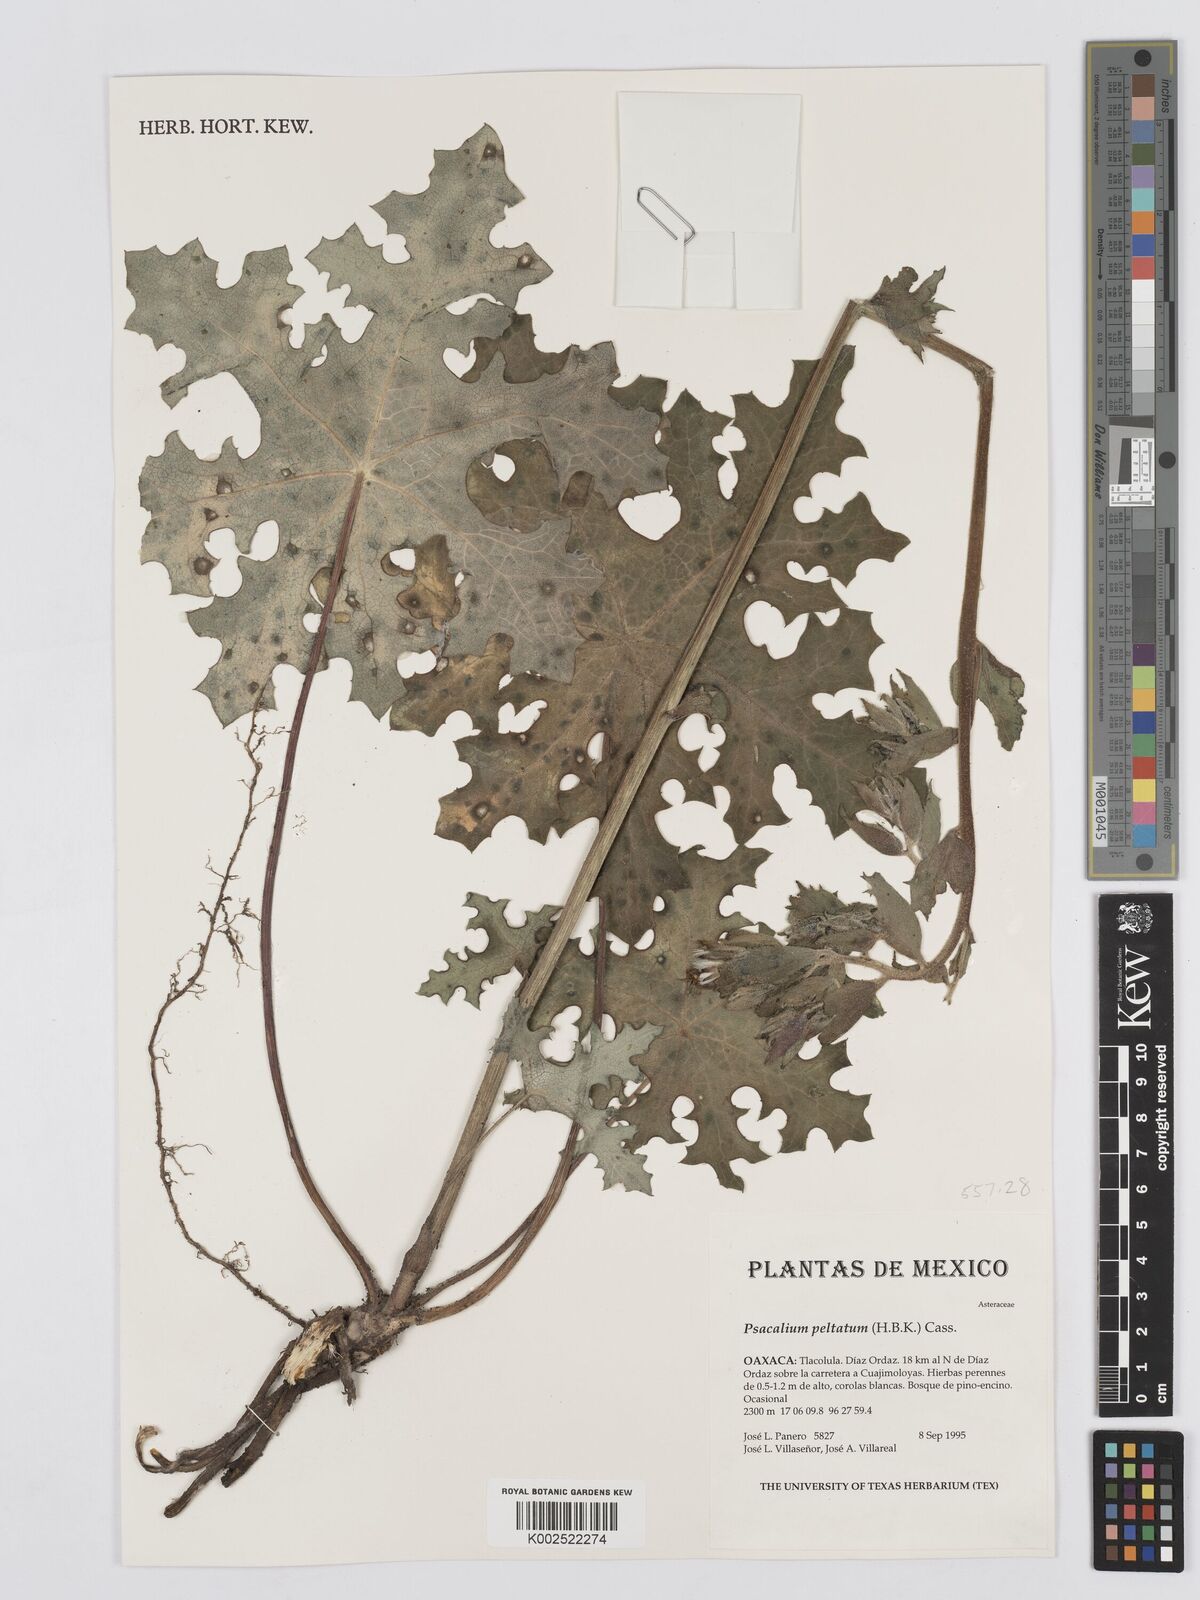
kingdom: Plantae
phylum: Tracheophyta
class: Magnoliopsida
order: Asterales
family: Asteraceae
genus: Psacalium
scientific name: Psacalium peltatum
